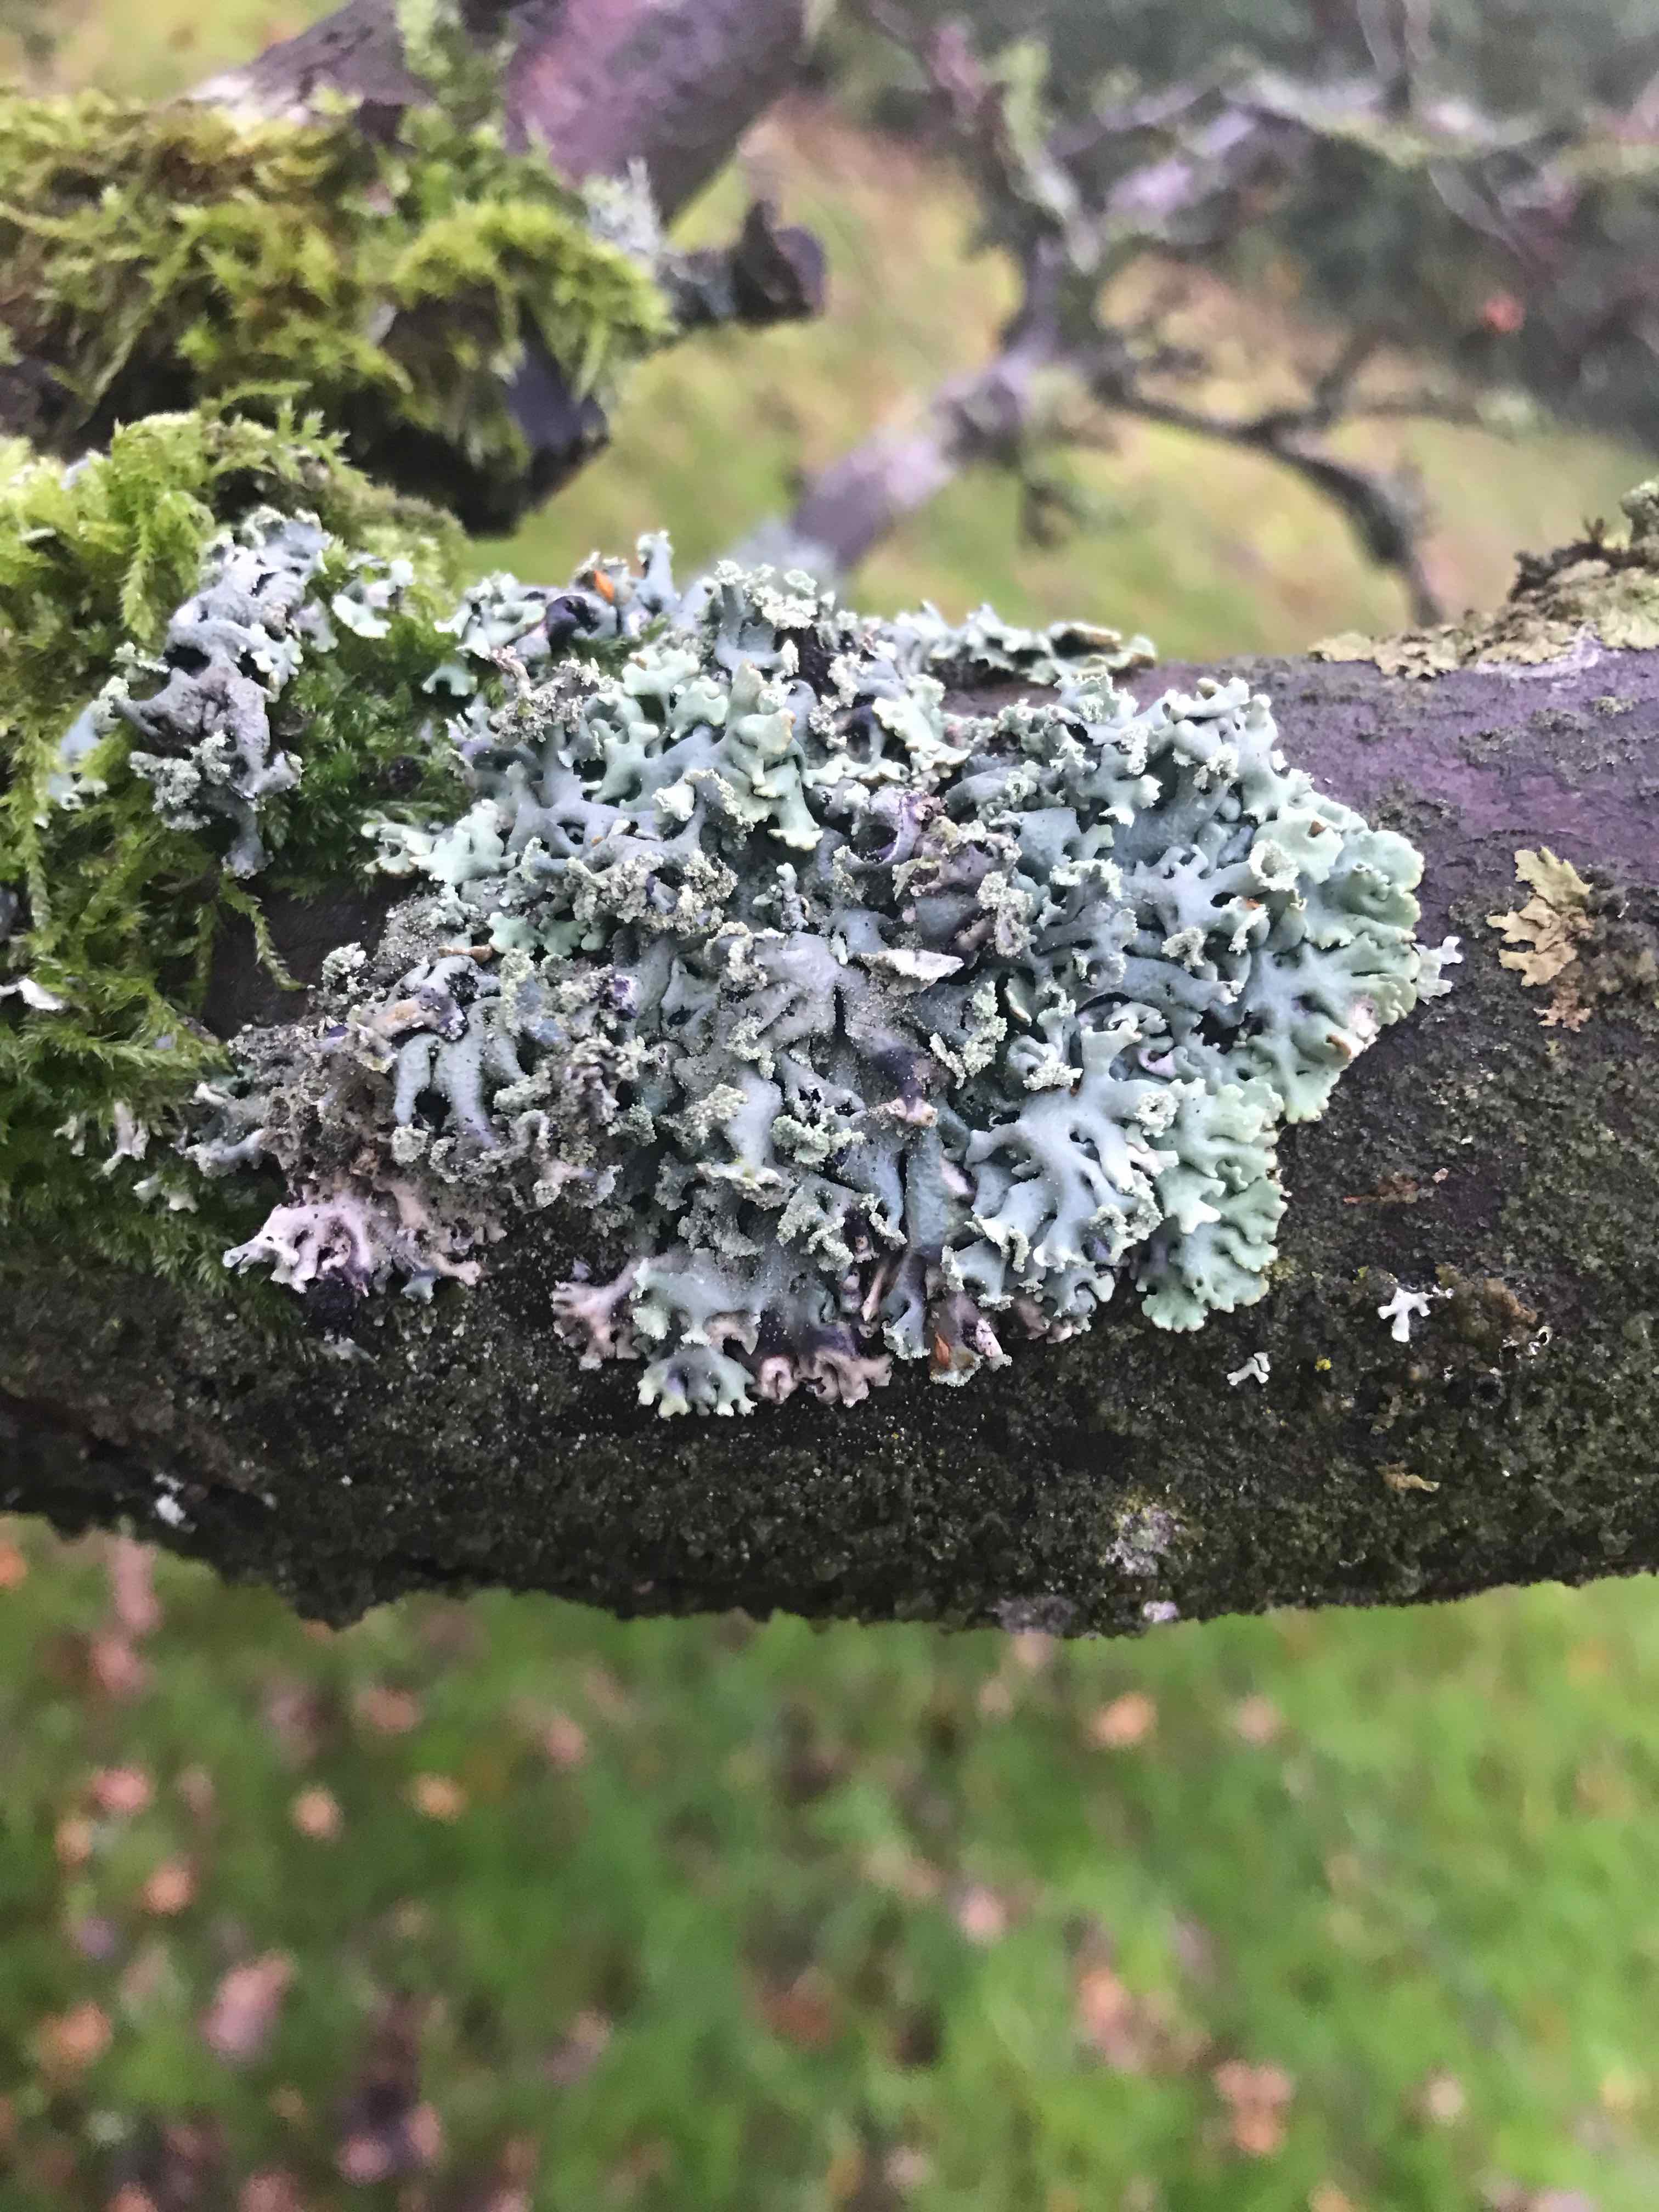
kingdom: Fungi
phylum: Ascomycota
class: Lecanoromycetes
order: Lecanorales
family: Parmeliaceae
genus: Hypogymnia
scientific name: Hypogymnia physodes
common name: almindelig kvistlav
